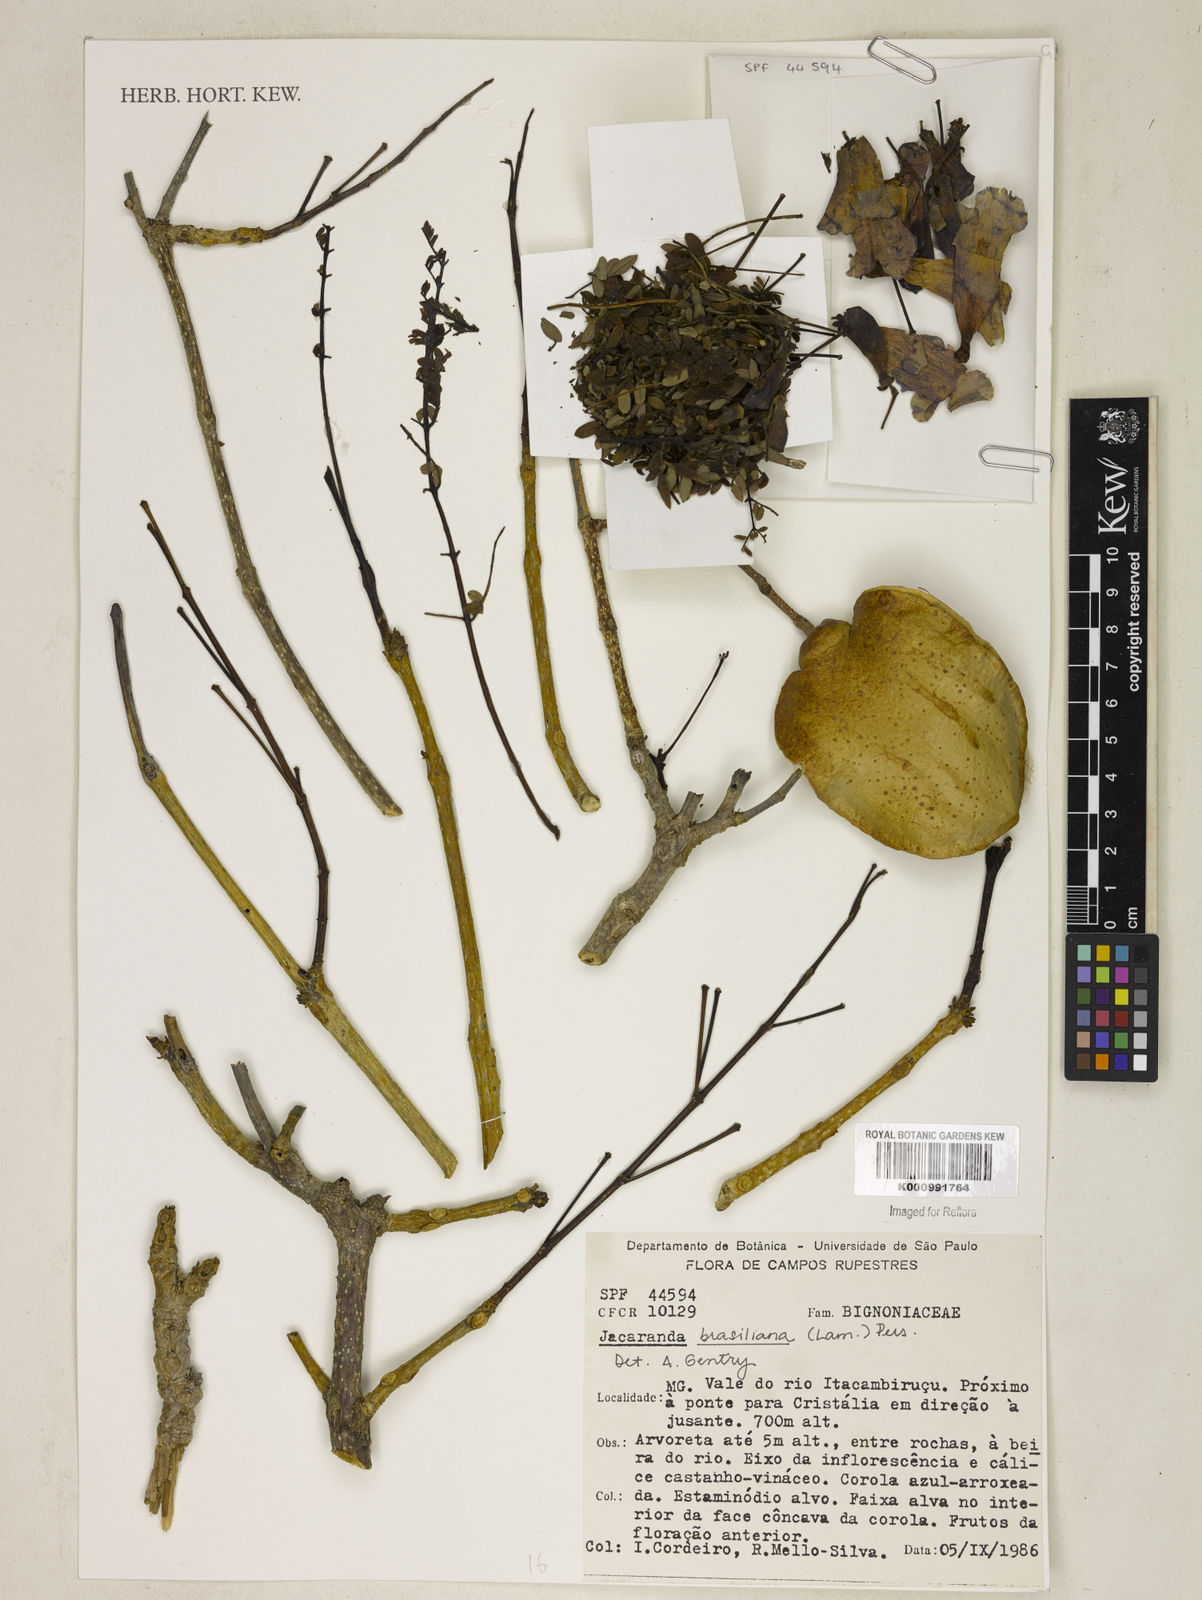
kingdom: Plantae
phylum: Tracheophyta
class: Magnoliopsida
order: Lamiales
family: Bignoniaceae
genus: Jacaranda
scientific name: Jacaranda brasiliana
